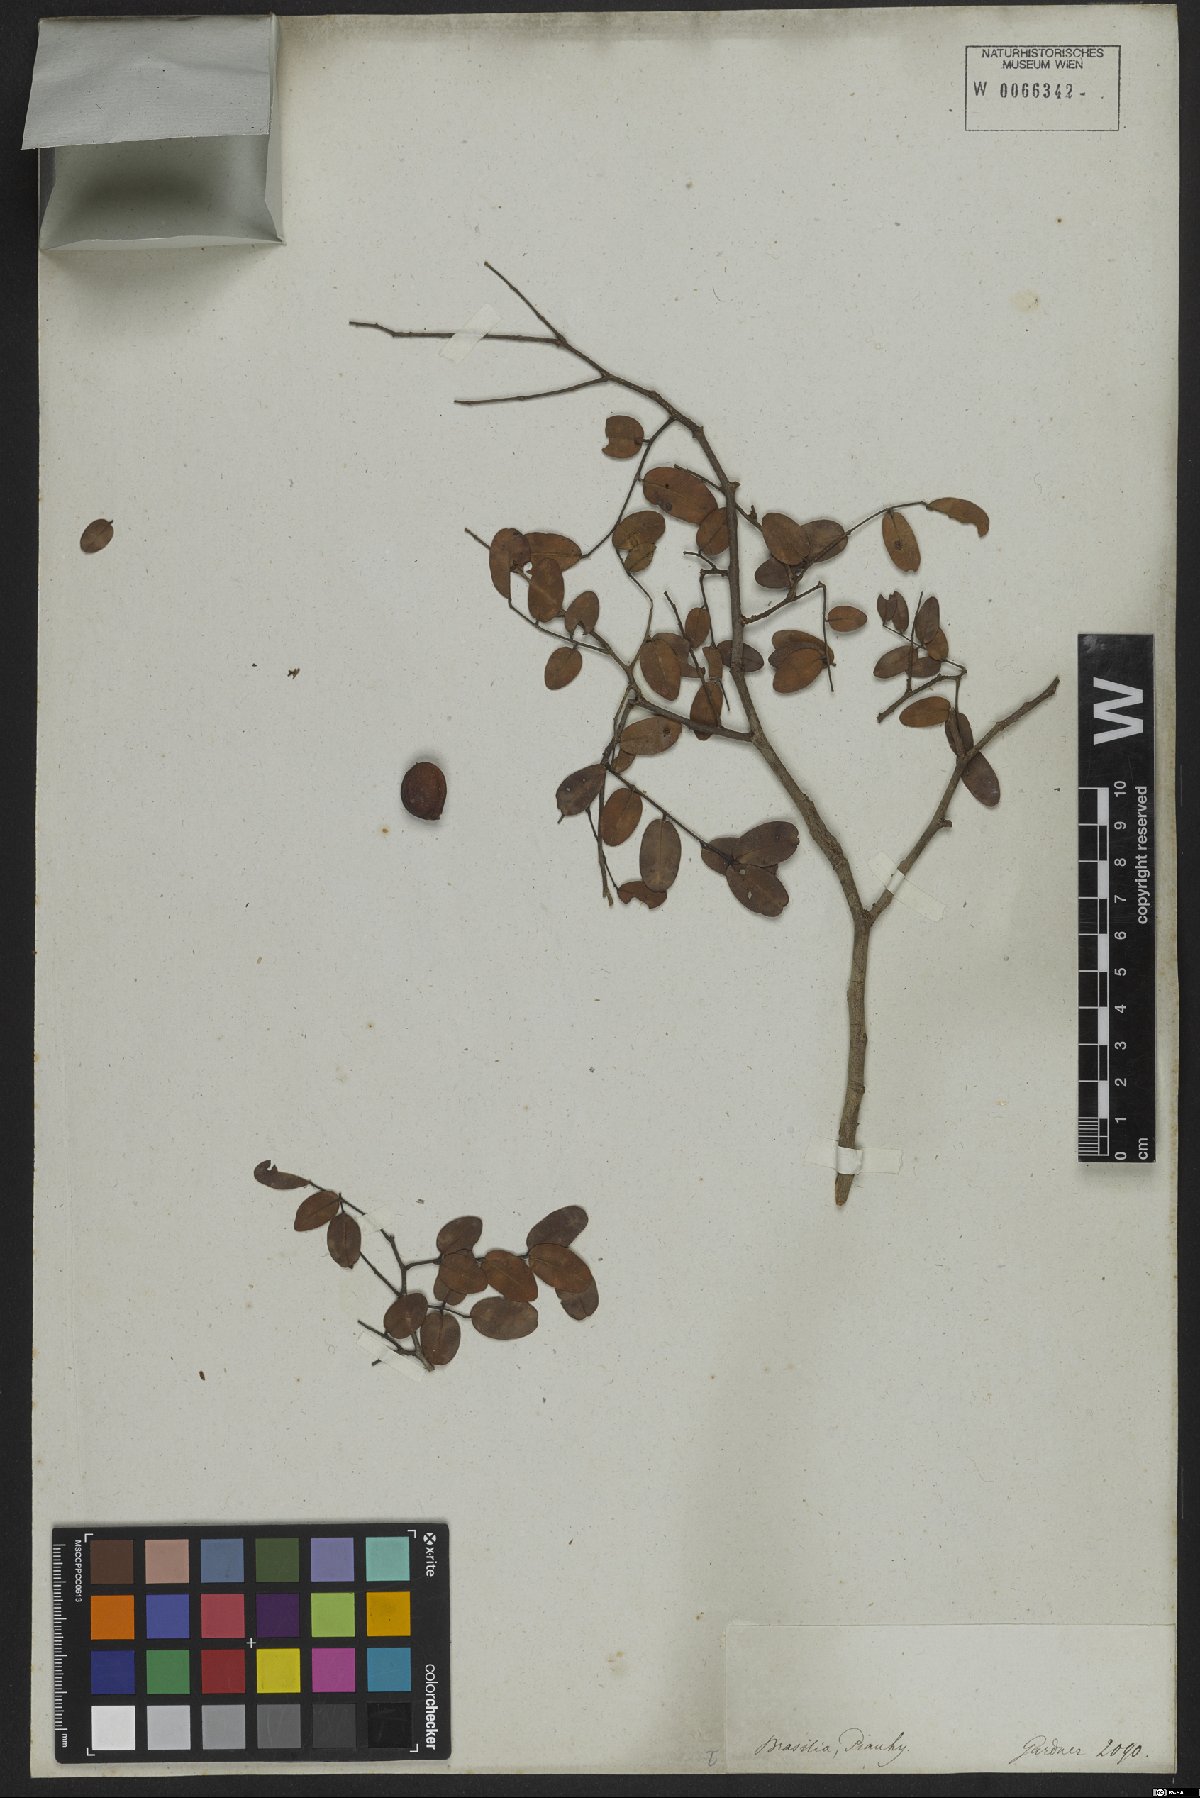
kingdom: Plantae
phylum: Tracheophyta
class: Magnoliopsida
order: Fabales
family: Fabaceae
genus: Copaifera
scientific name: Copaifera coriacea
